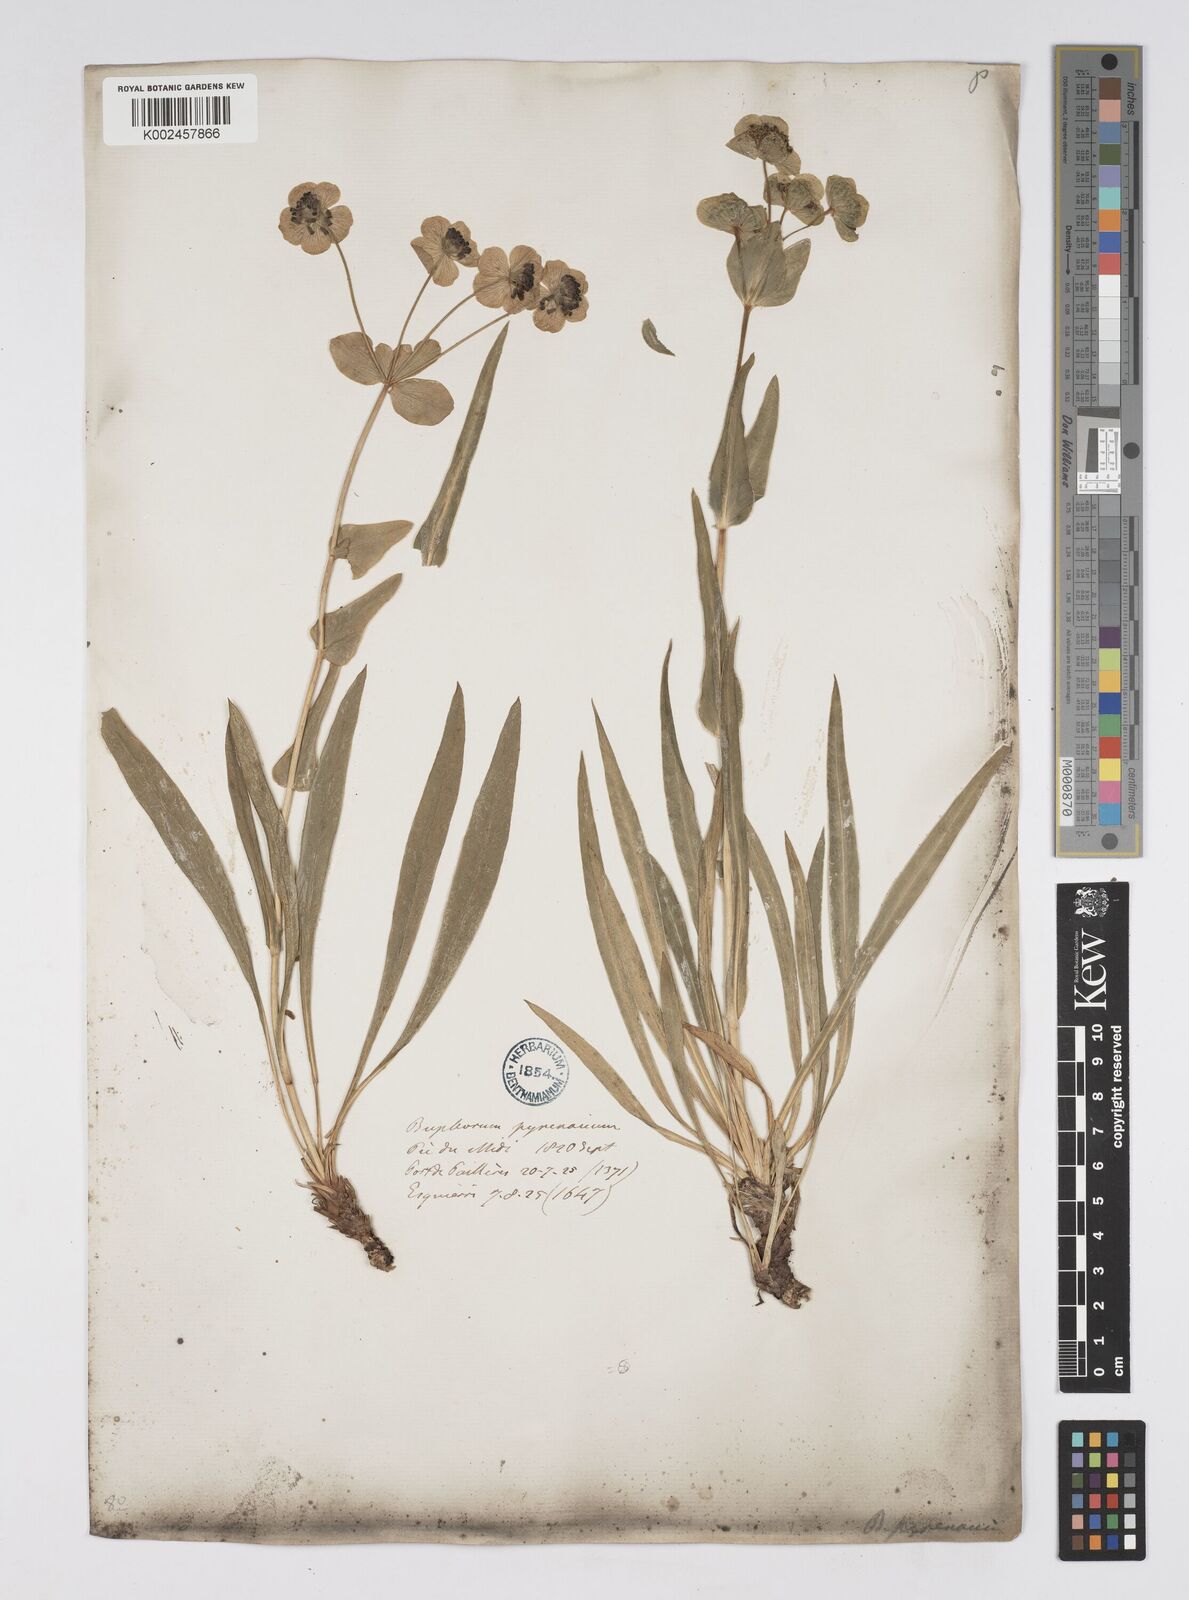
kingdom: Plantae
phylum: Tracheophyta
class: Magnoliopsida
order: Apiales
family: Apiaceae
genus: Bupleurum
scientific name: Bupleurum angulosum
